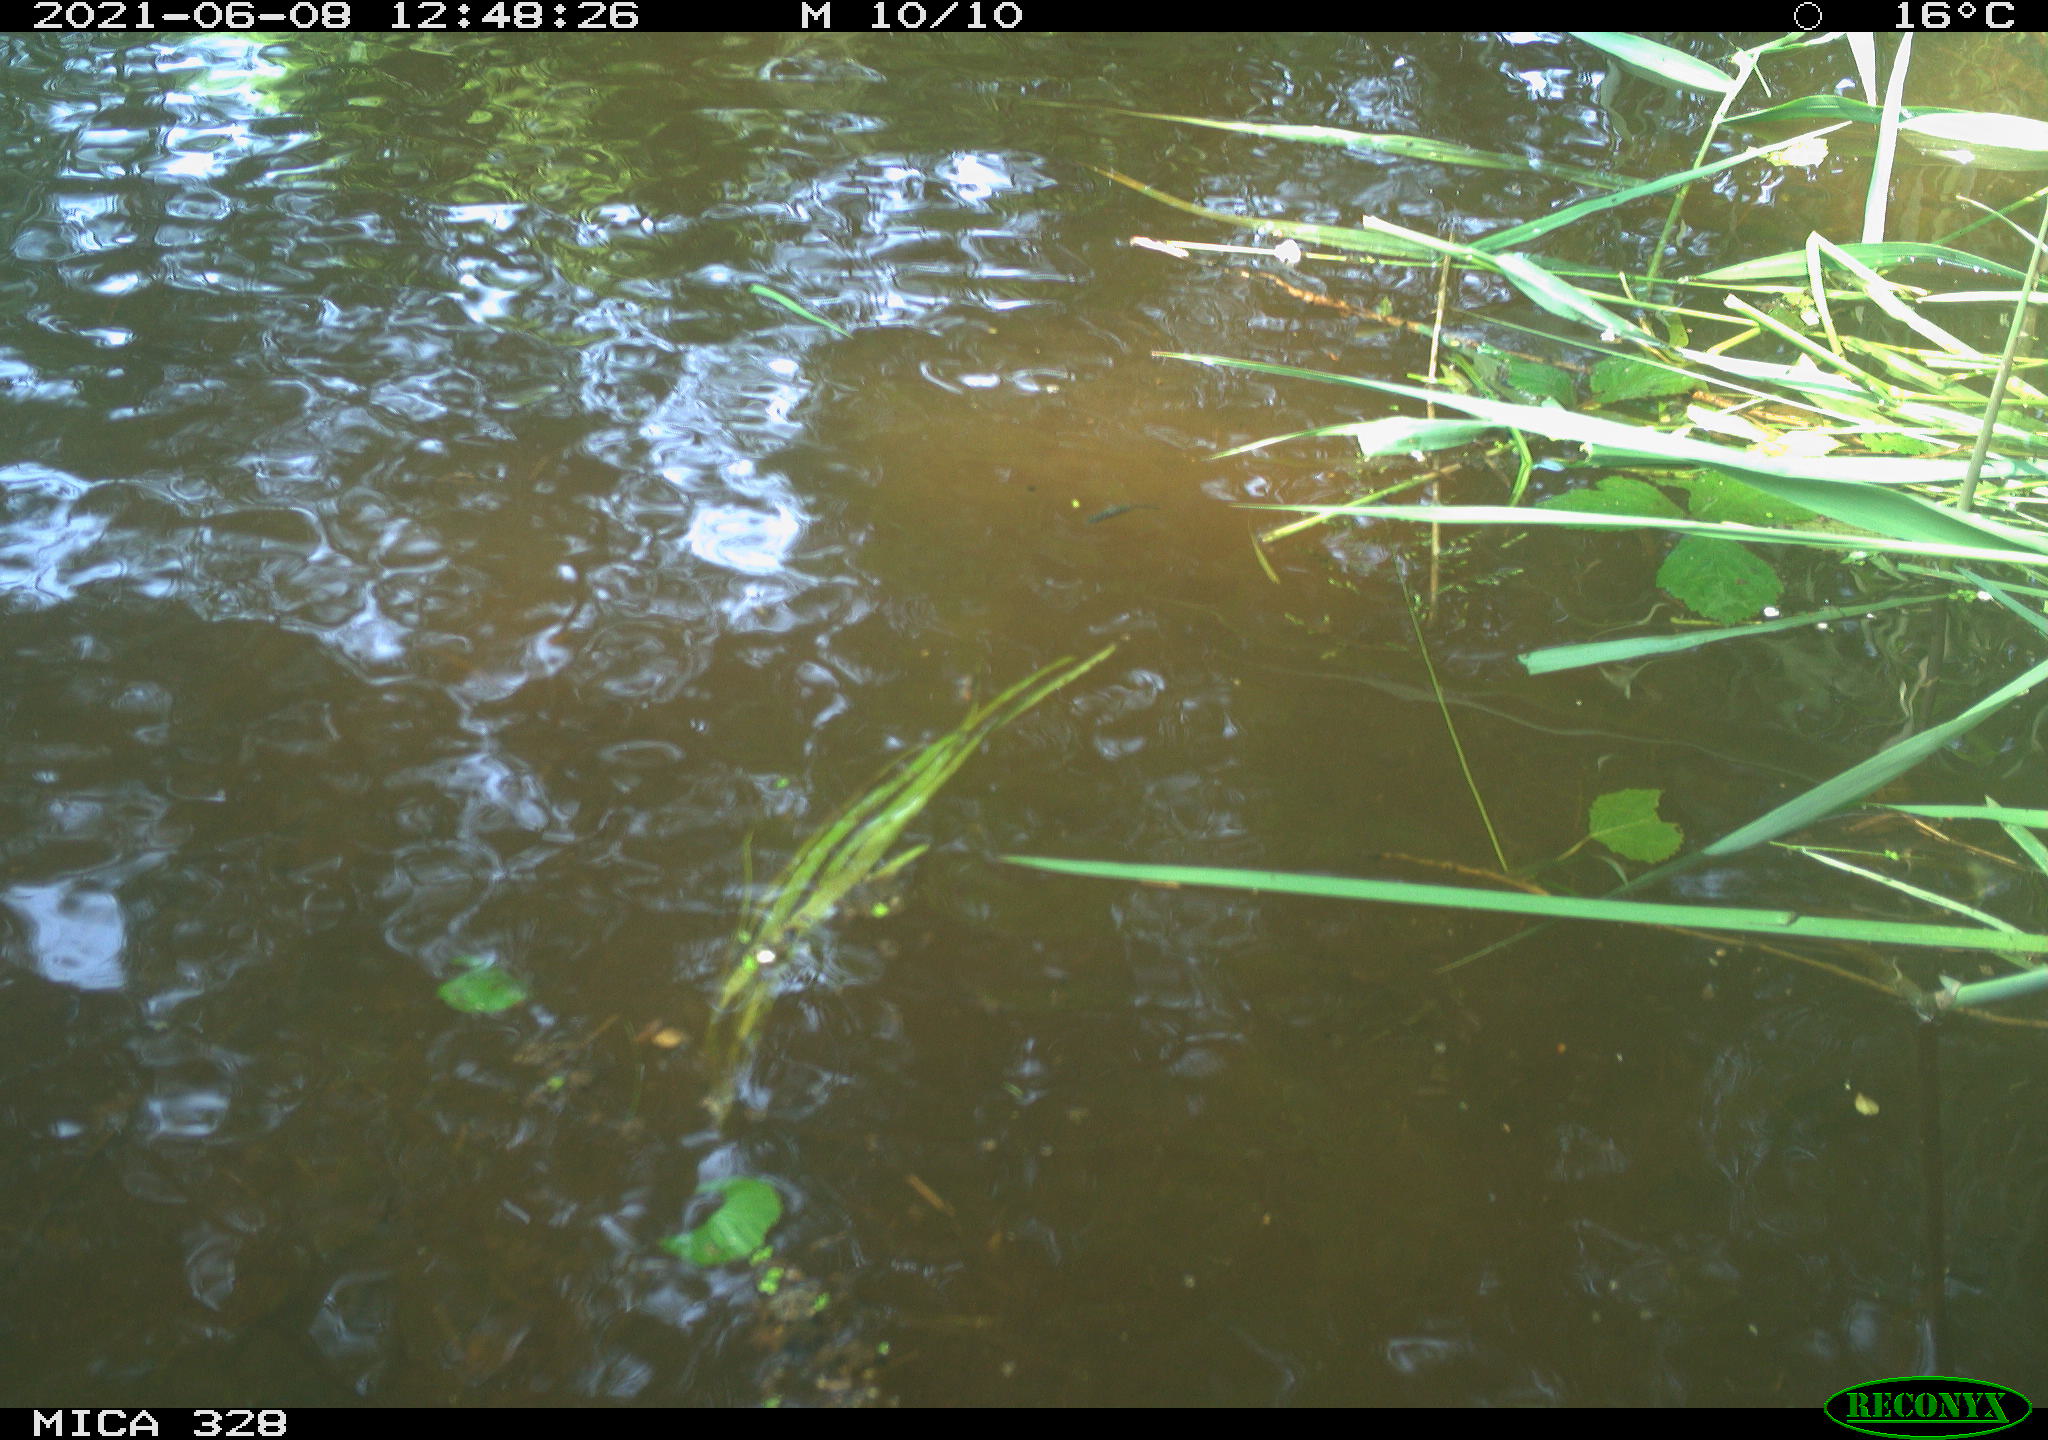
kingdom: Animalia
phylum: Chordata
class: Aves
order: Anseriformes
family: Anatidae
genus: Aix
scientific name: Aix galericulata
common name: Mandarin duck
